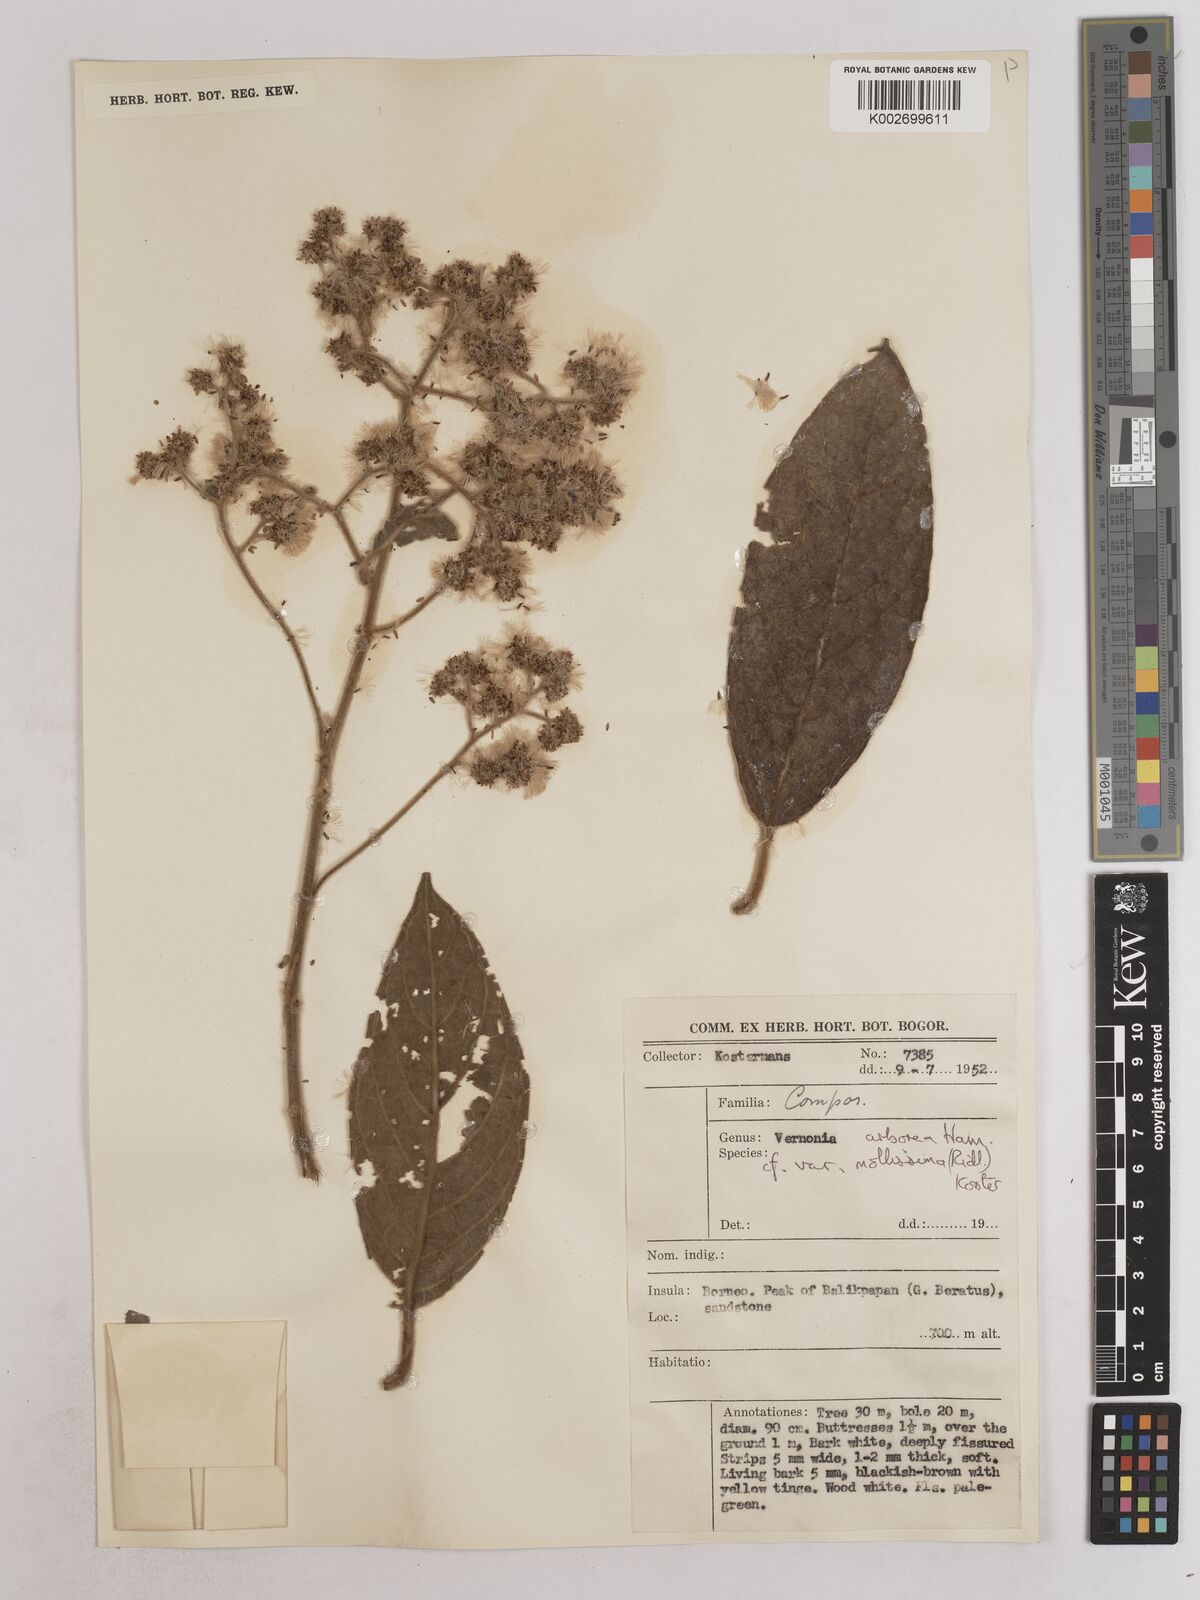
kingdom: Plantae
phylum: Tracheophyta
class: Magnoliopsida
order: Asterales
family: Asteraceae
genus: Strobocalyx
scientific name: Strobocalyx arborea
